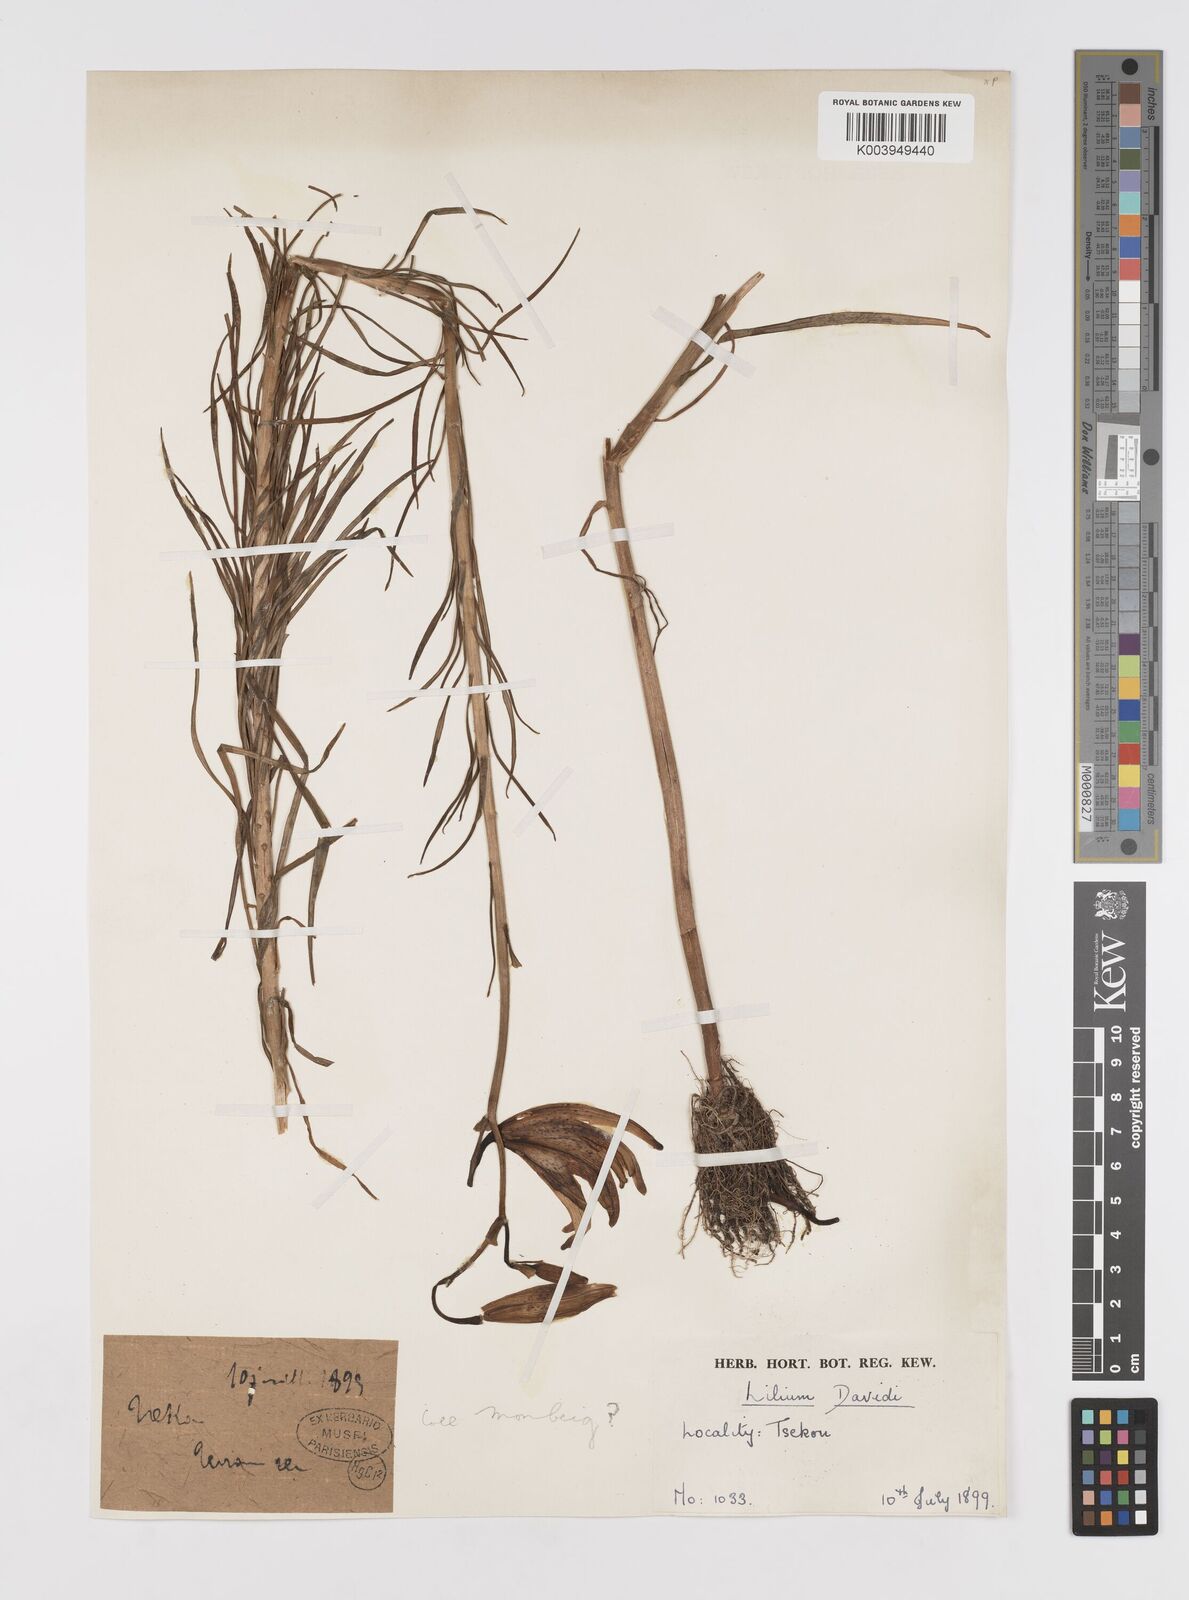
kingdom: Plantae
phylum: Tracheophyta
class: Liliopsida
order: Liliales
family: Liliaceae
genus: Lilium
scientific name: Lilium davidii
